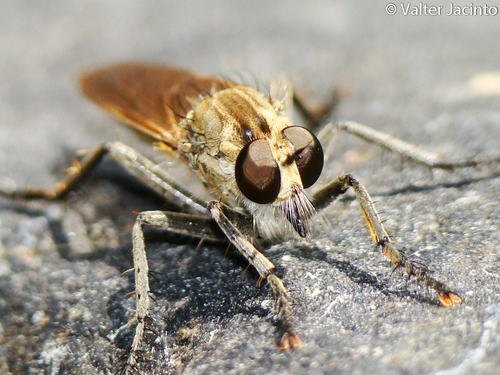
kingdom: Animalia
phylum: Arthropoda
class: Insecta
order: Diptera
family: Asilidae
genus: Philonicus
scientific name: Philonicus albiceps
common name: Dune robberfly
